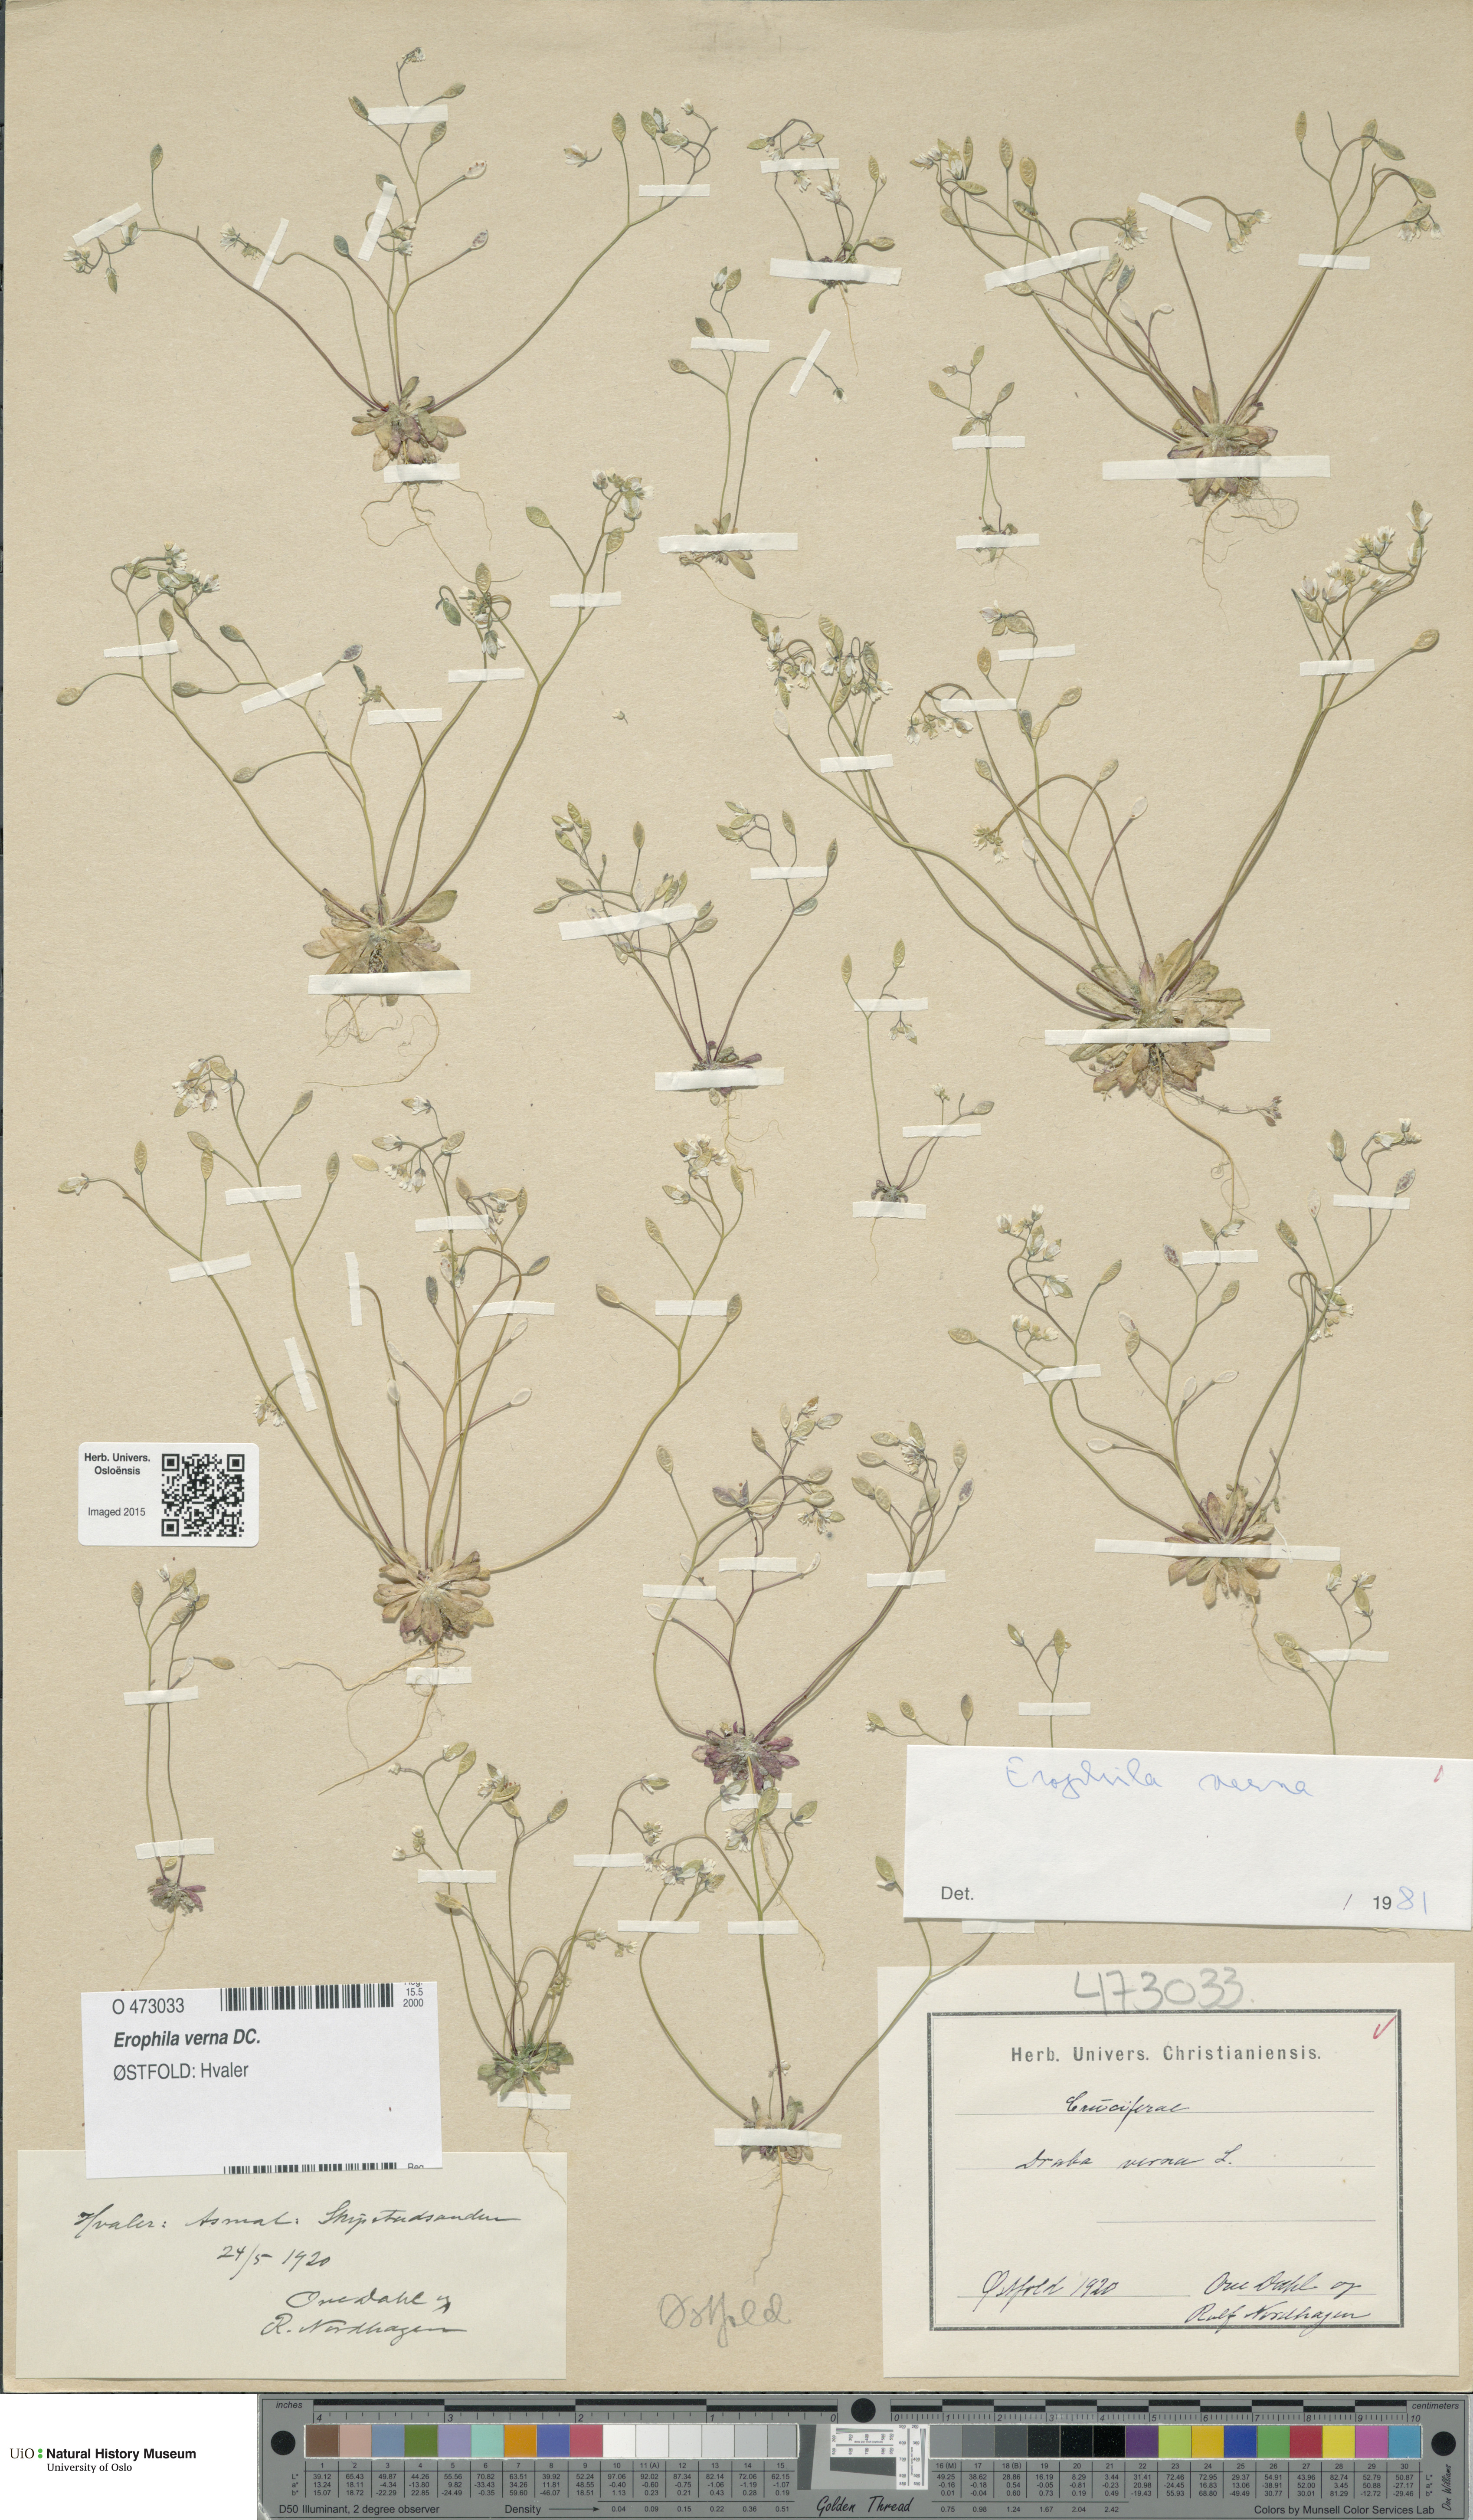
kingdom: Plantae
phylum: Tracheophyta
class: Magnoliopsida
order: Brassicales
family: Brassicaceae
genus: Draba
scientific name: Draba verna
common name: Spring draba
